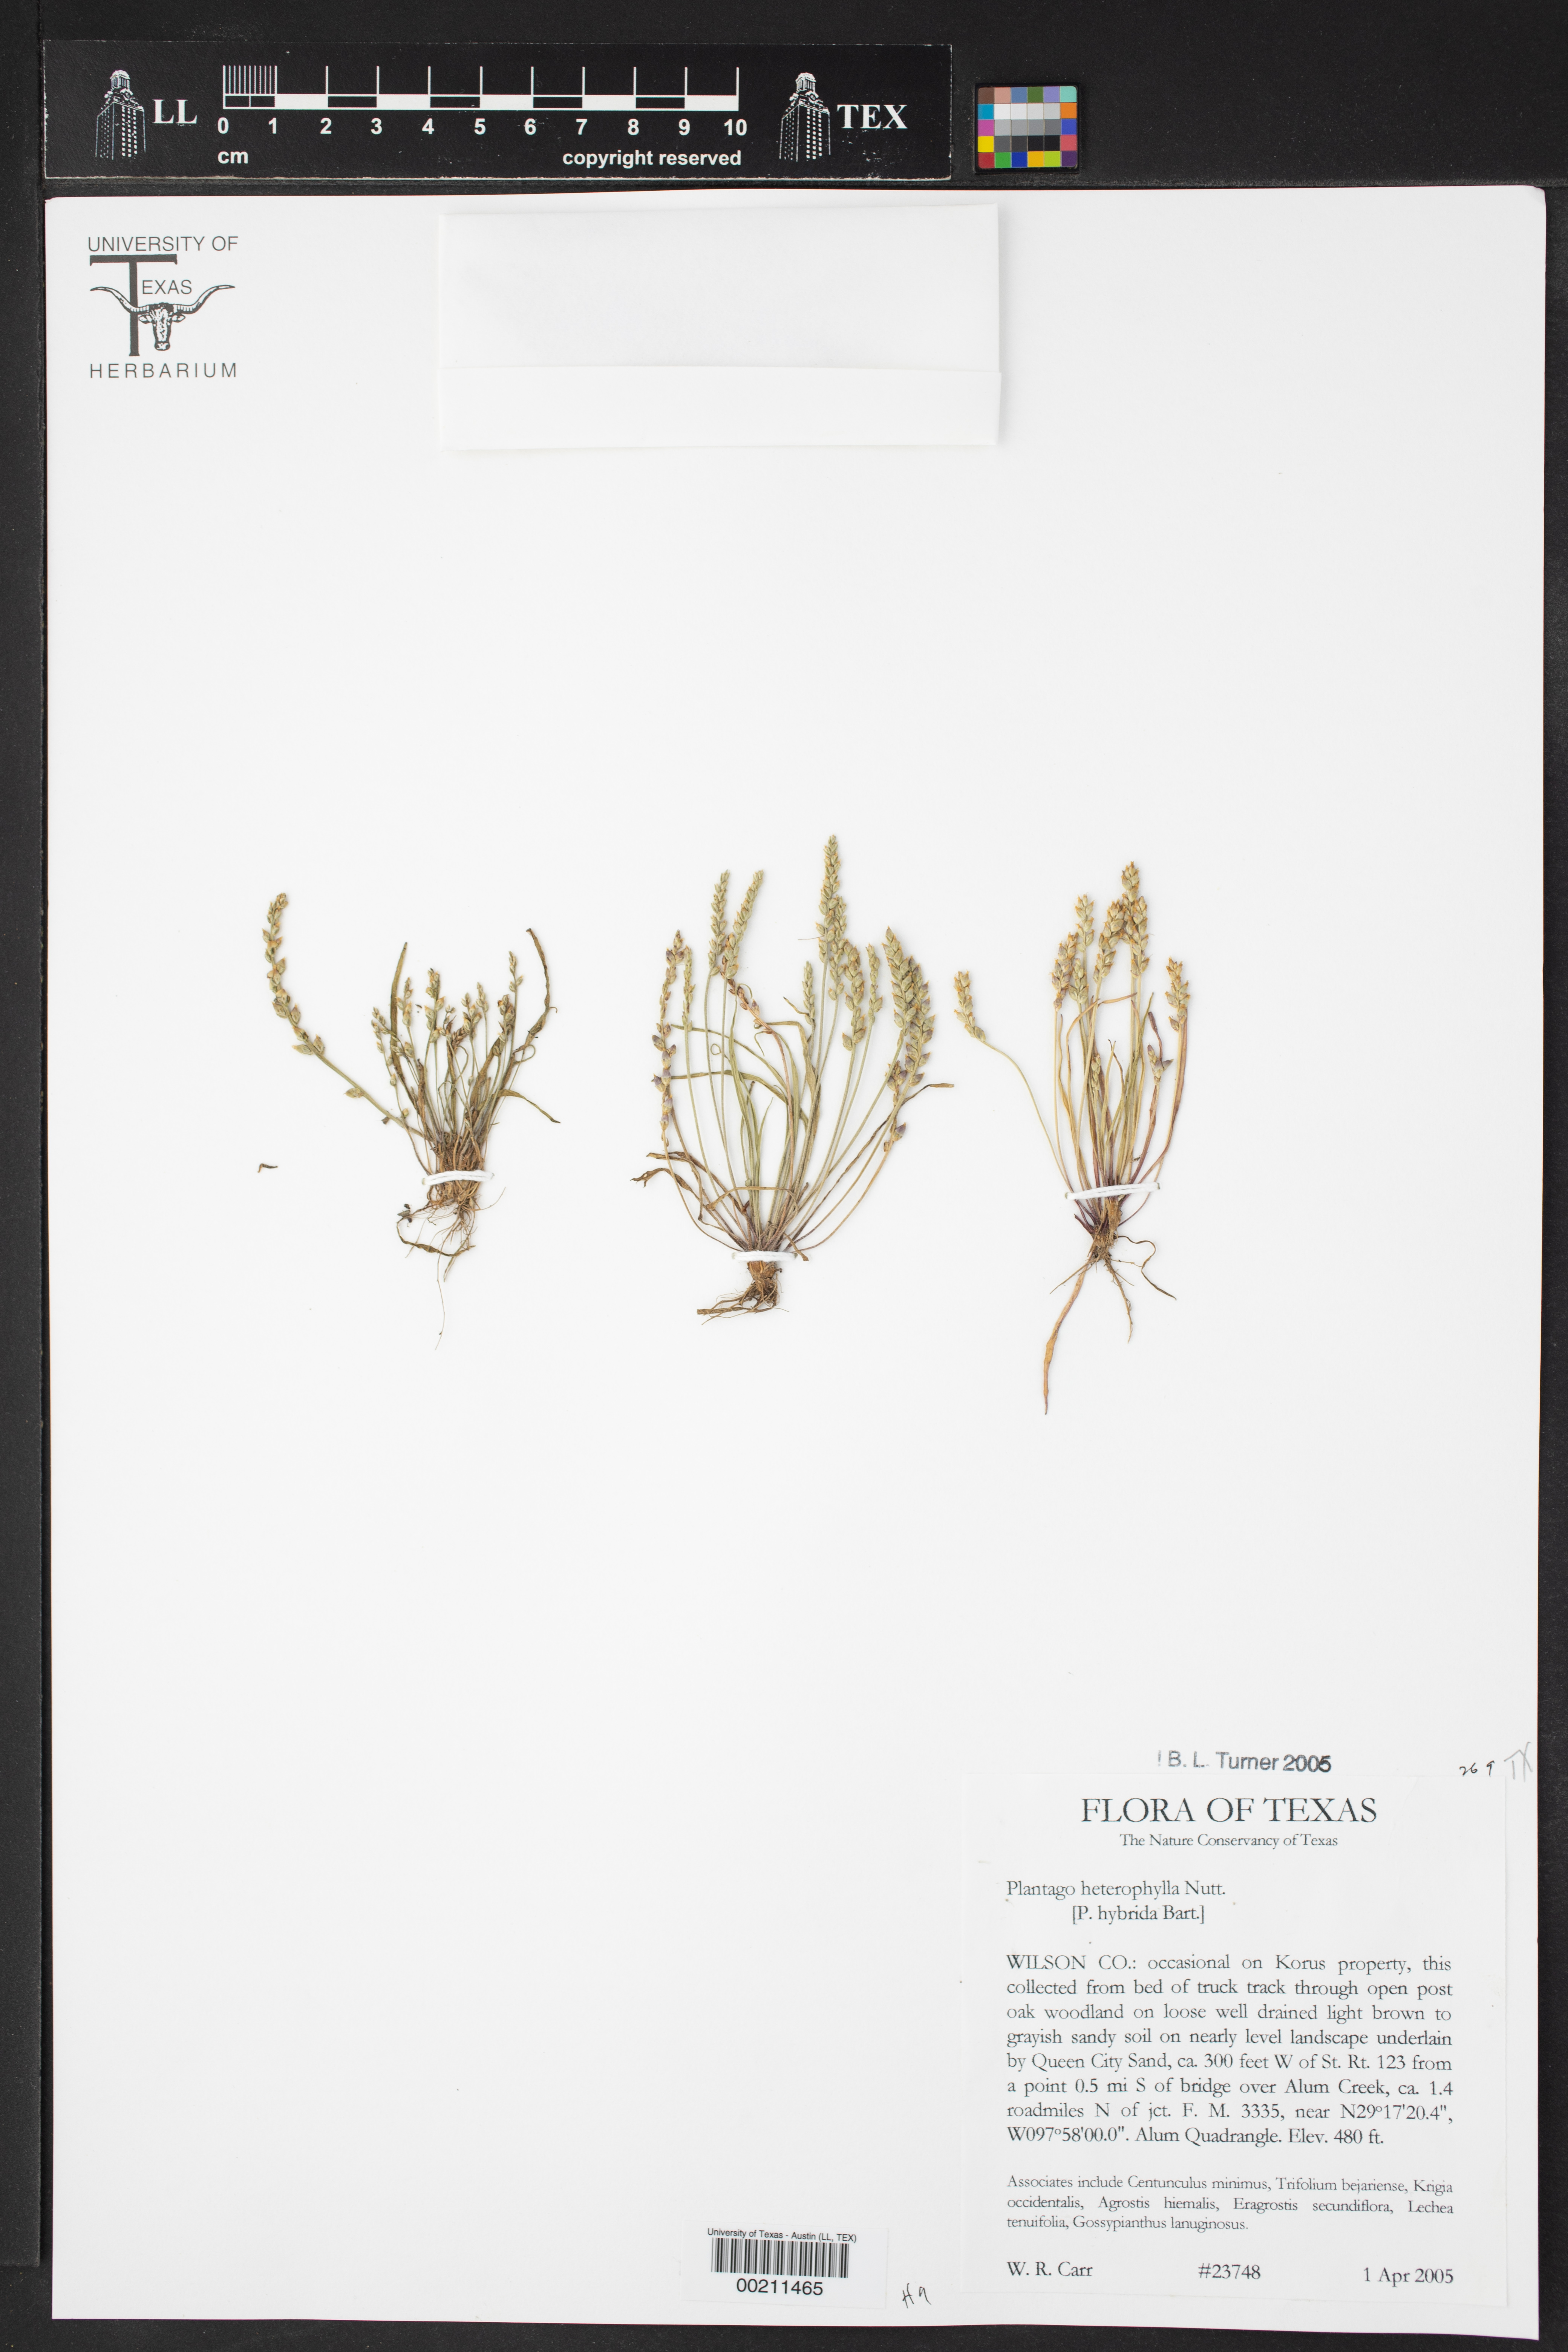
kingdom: Plantae
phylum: Tracheophyta
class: Magnoliopsida
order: Lamiales
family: Plantaginaceae
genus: Plantago
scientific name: Plantago heterophylla
